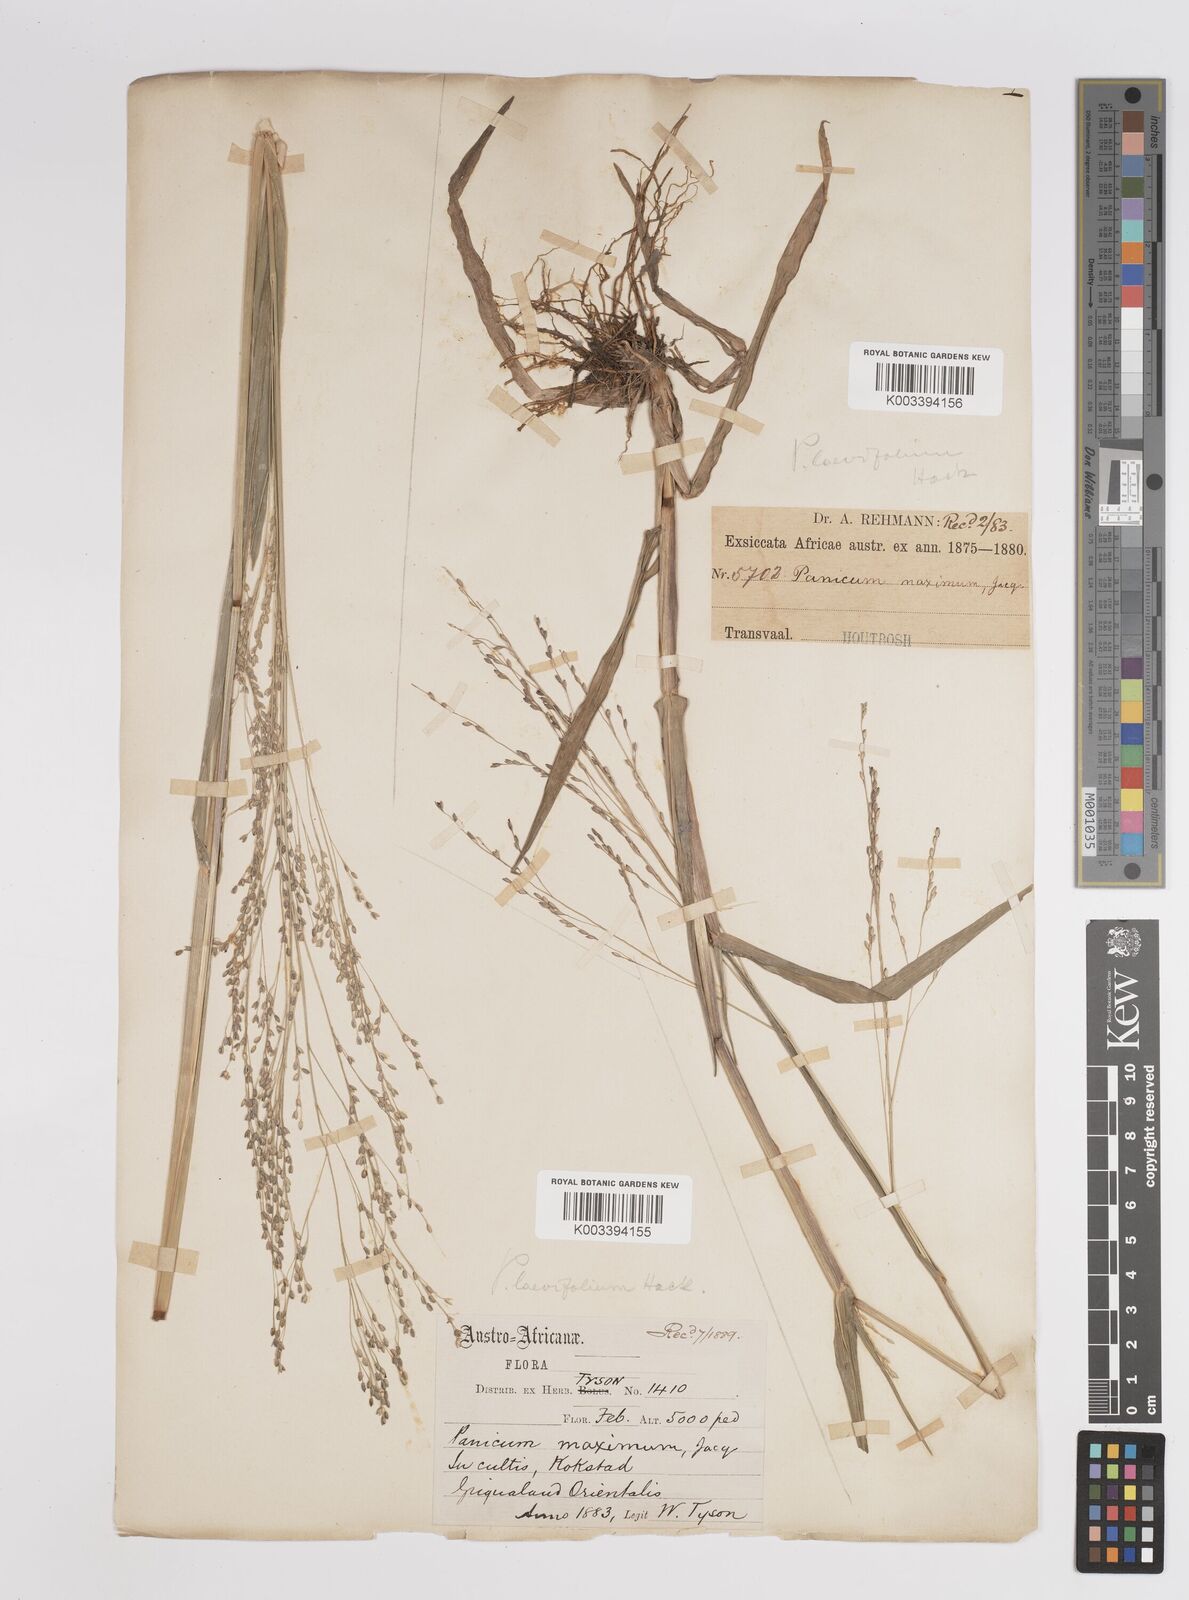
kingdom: Plantae
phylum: Tracheophyta
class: Liliopsida
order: Poales
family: Poaceae
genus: Panicum
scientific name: Panicum schinzii
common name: Sweet grass
